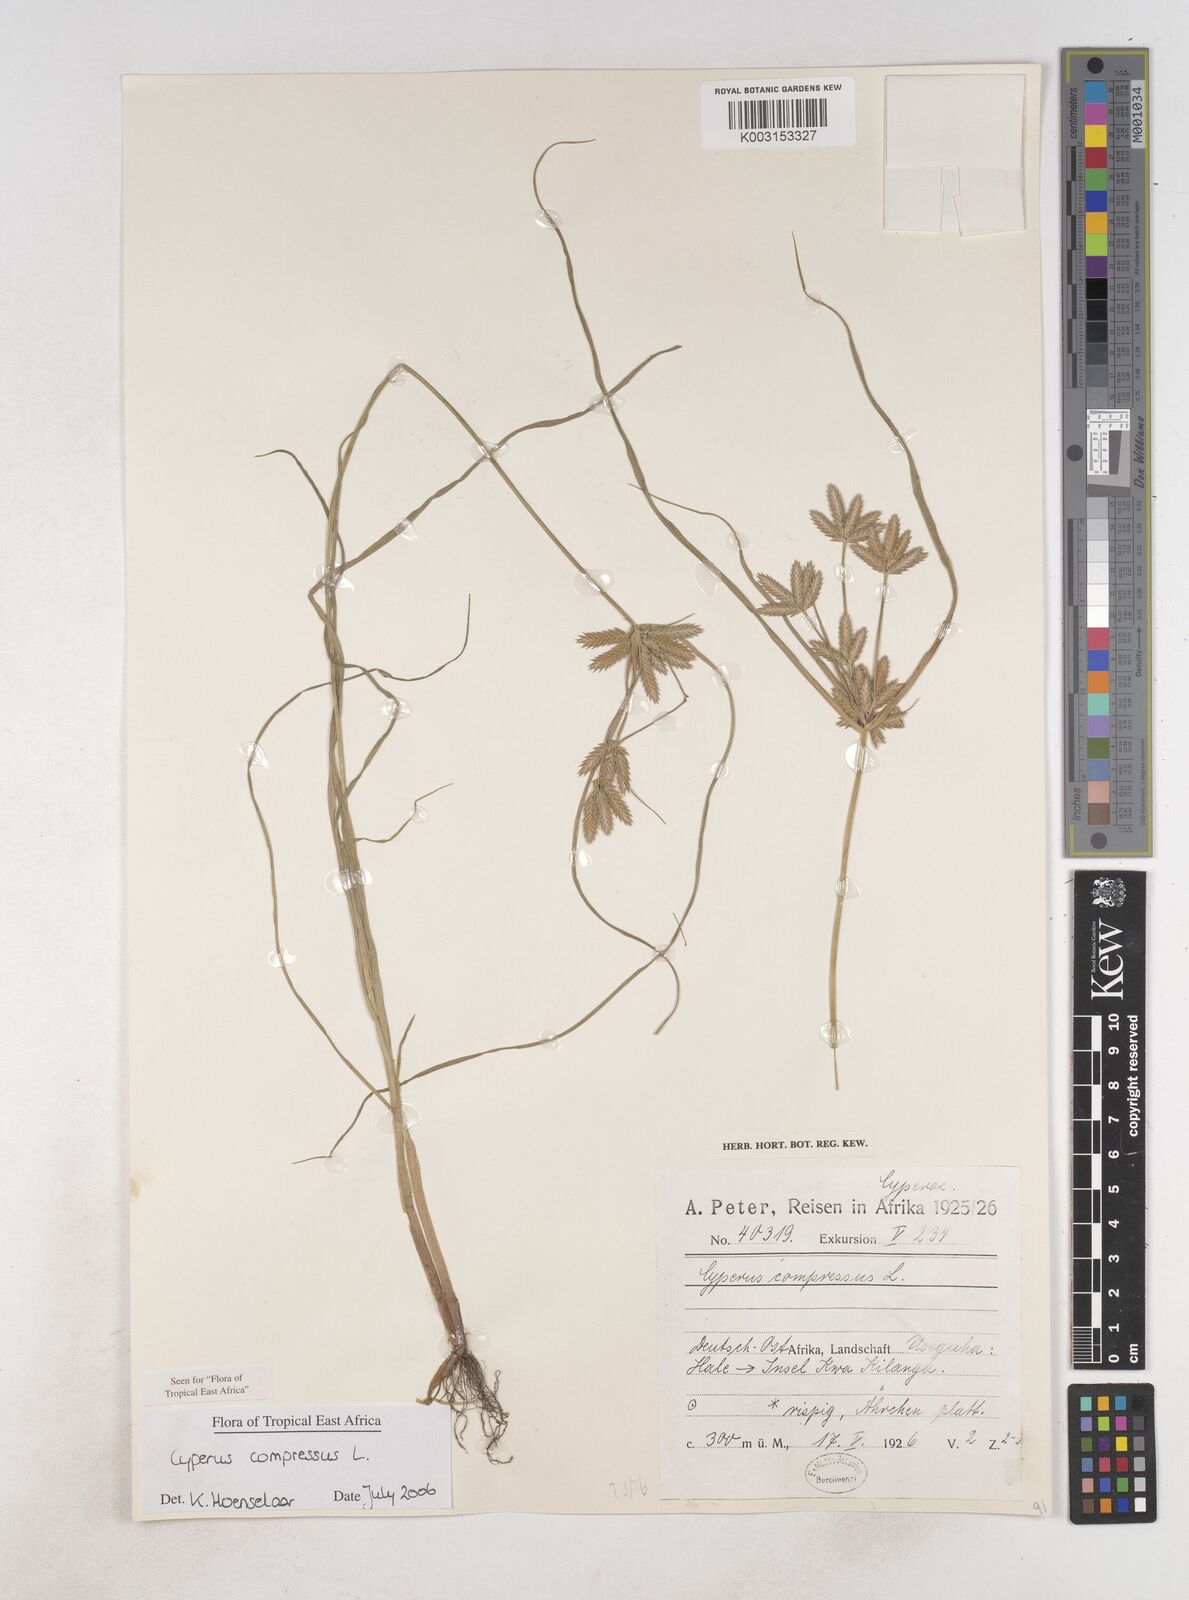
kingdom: Plantae
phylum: Tracheophyta
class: Liliopsida
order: Poales
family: Cyperaceae
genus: Cyperus
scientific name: Cyperus compressus
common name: Poorland flatsedge
